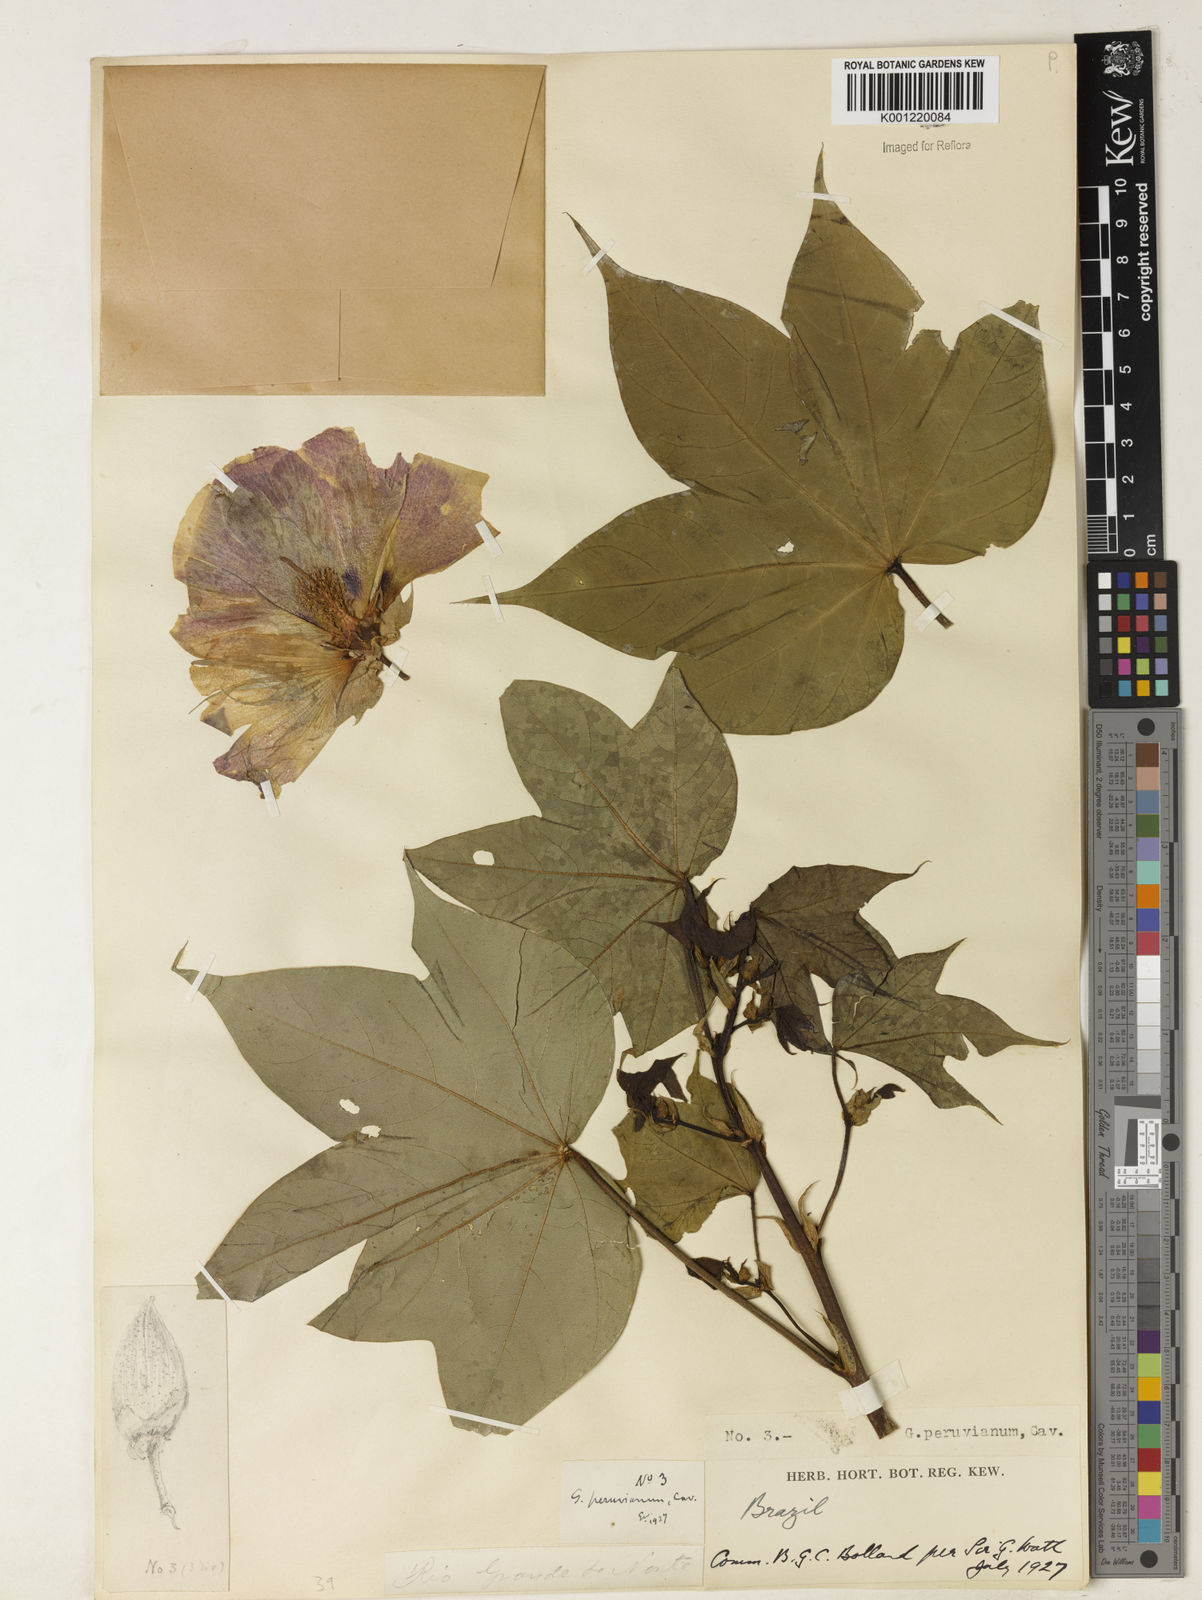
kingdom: Plantae
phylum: Tracheophyta
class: Magnoliopsida
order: Malvales
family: Malvaceae
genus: Gossypium
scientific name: Gossypium barbadense
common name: Creole cotton
